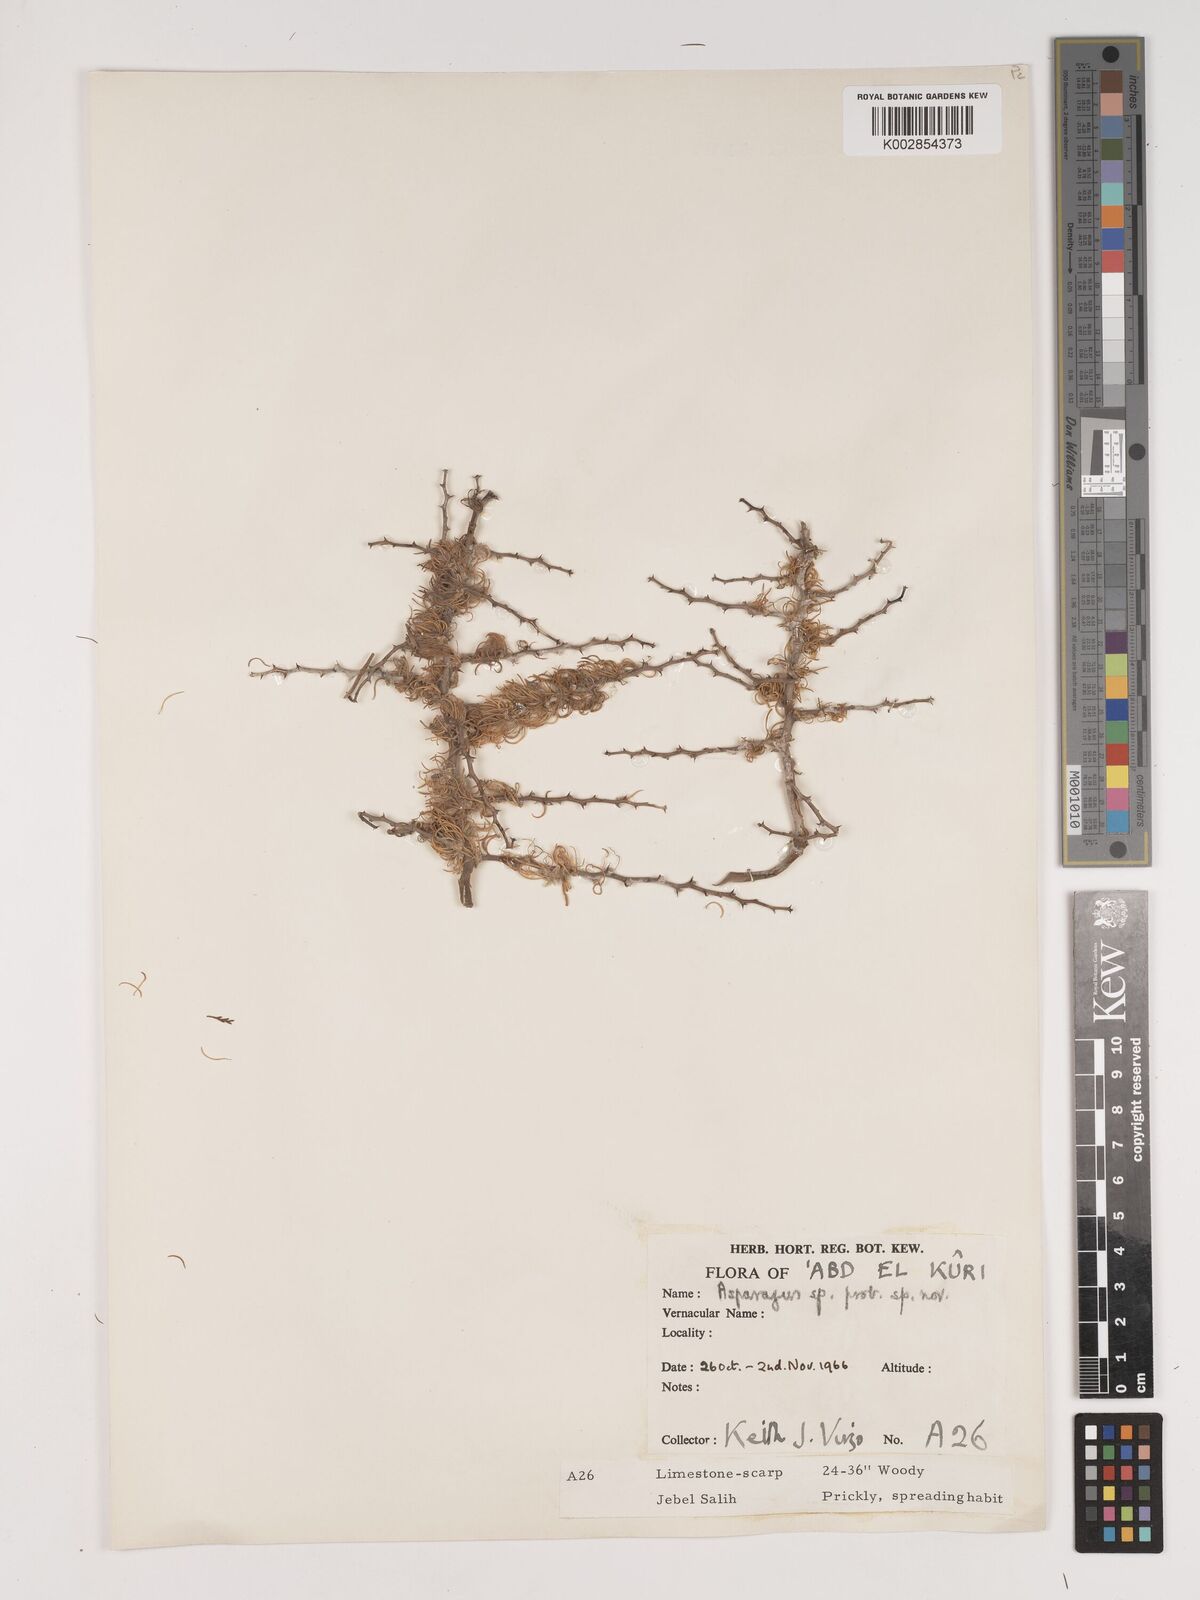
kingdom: Plantae
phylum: Tracheophyta
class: Liliopsida
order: Asparagales
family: Asparagaceae
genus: Asparagus
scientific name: Asparagus
